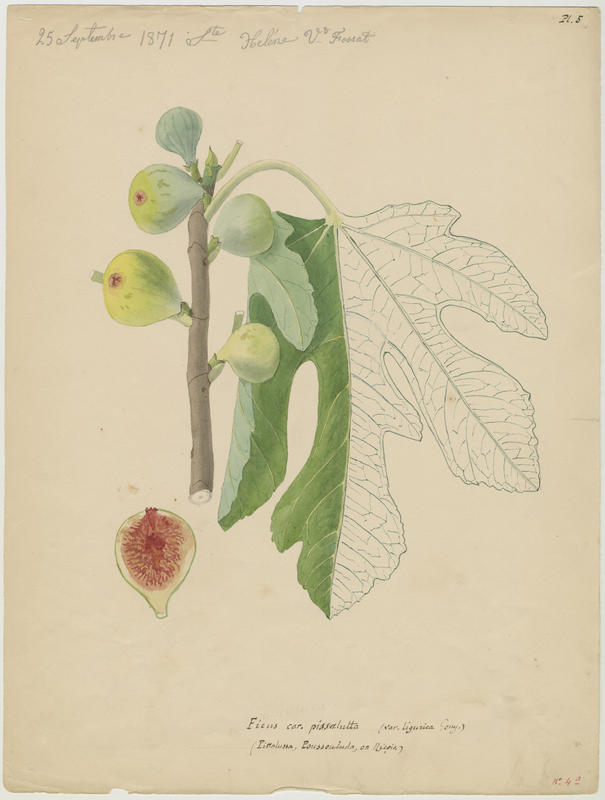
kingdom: Plantae
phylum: Tracheophyta
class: Magnoliopsida
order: Rosales
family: Moraceae
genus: Ficus
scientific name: Ficus carica
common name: Fig
